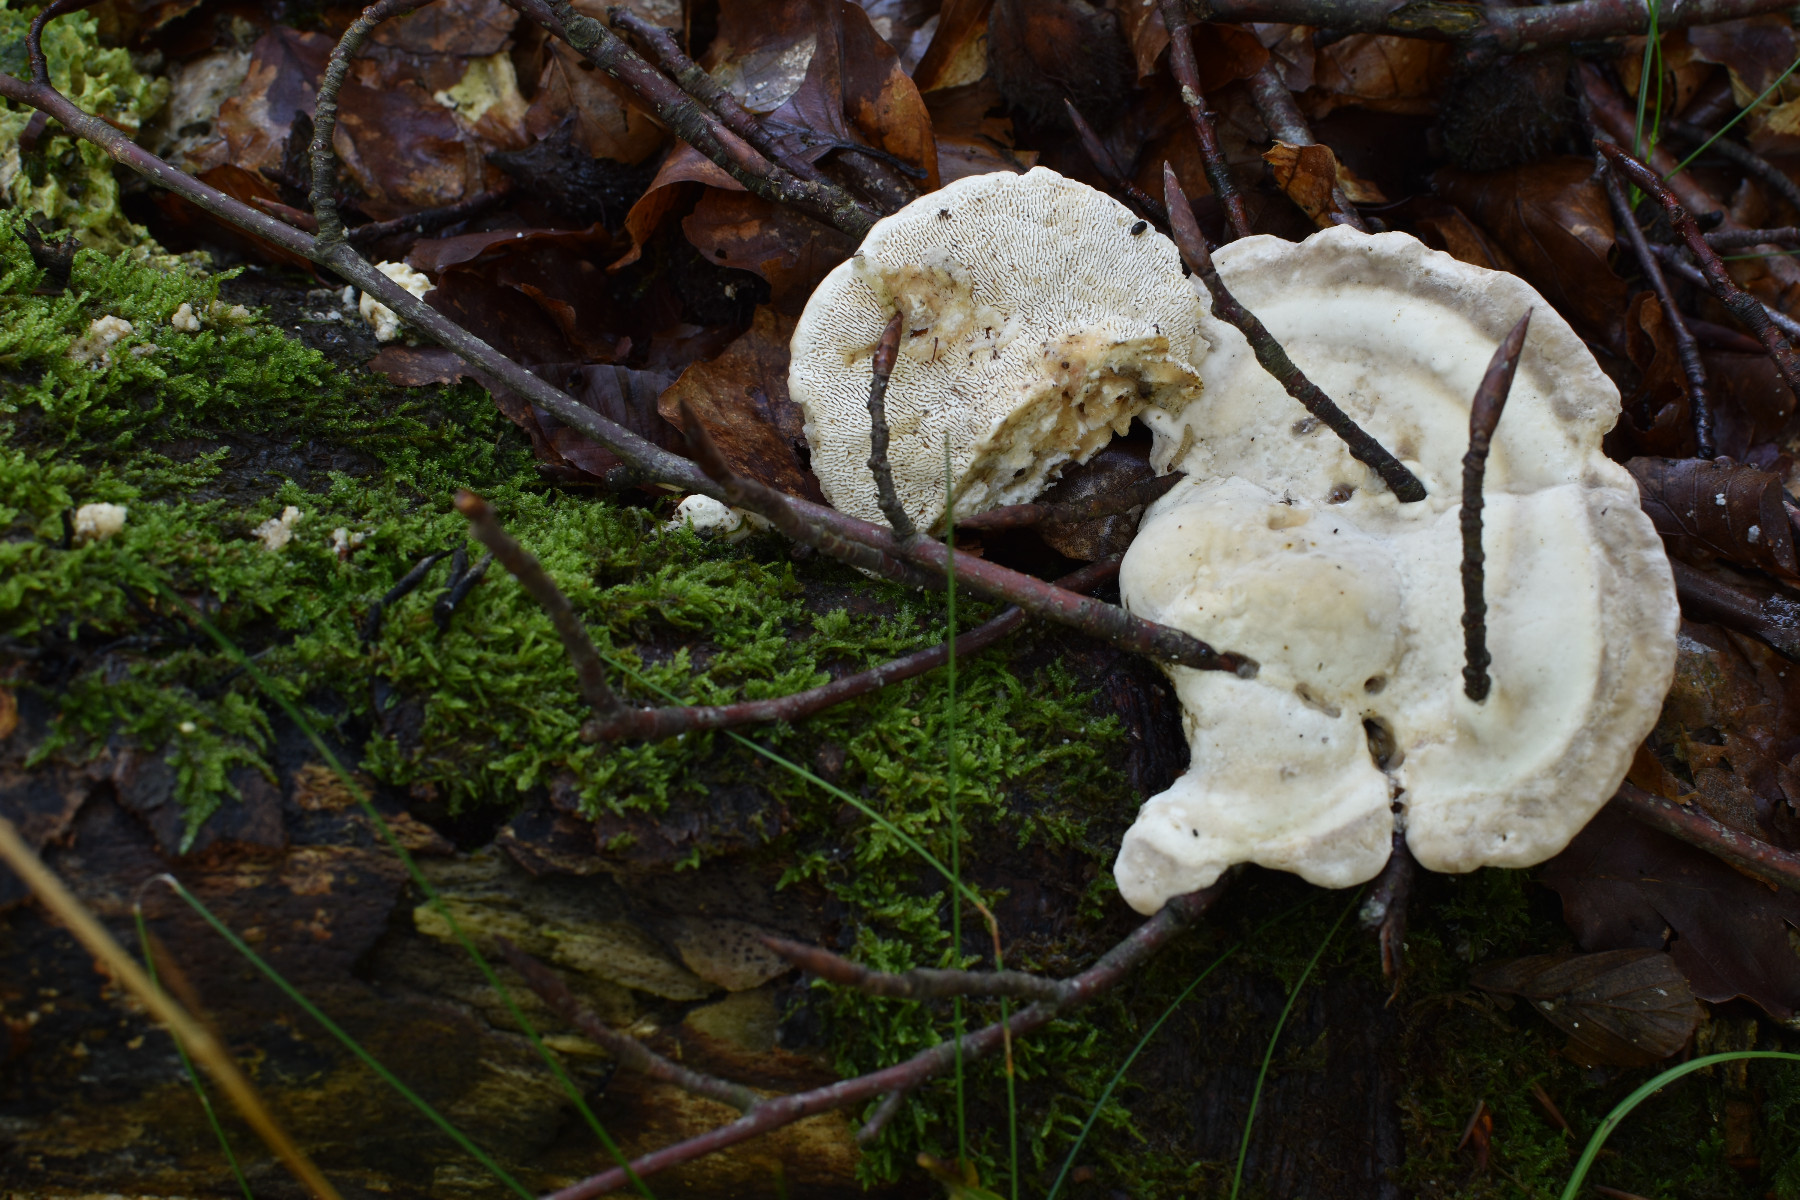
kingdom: Fungi
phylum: Basidiomycota
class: Agaricomycetes
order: Polyporales
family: Polyporaceae
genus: Trametes
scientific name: Trametes gibbosa
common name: puklet læderporesvamp
